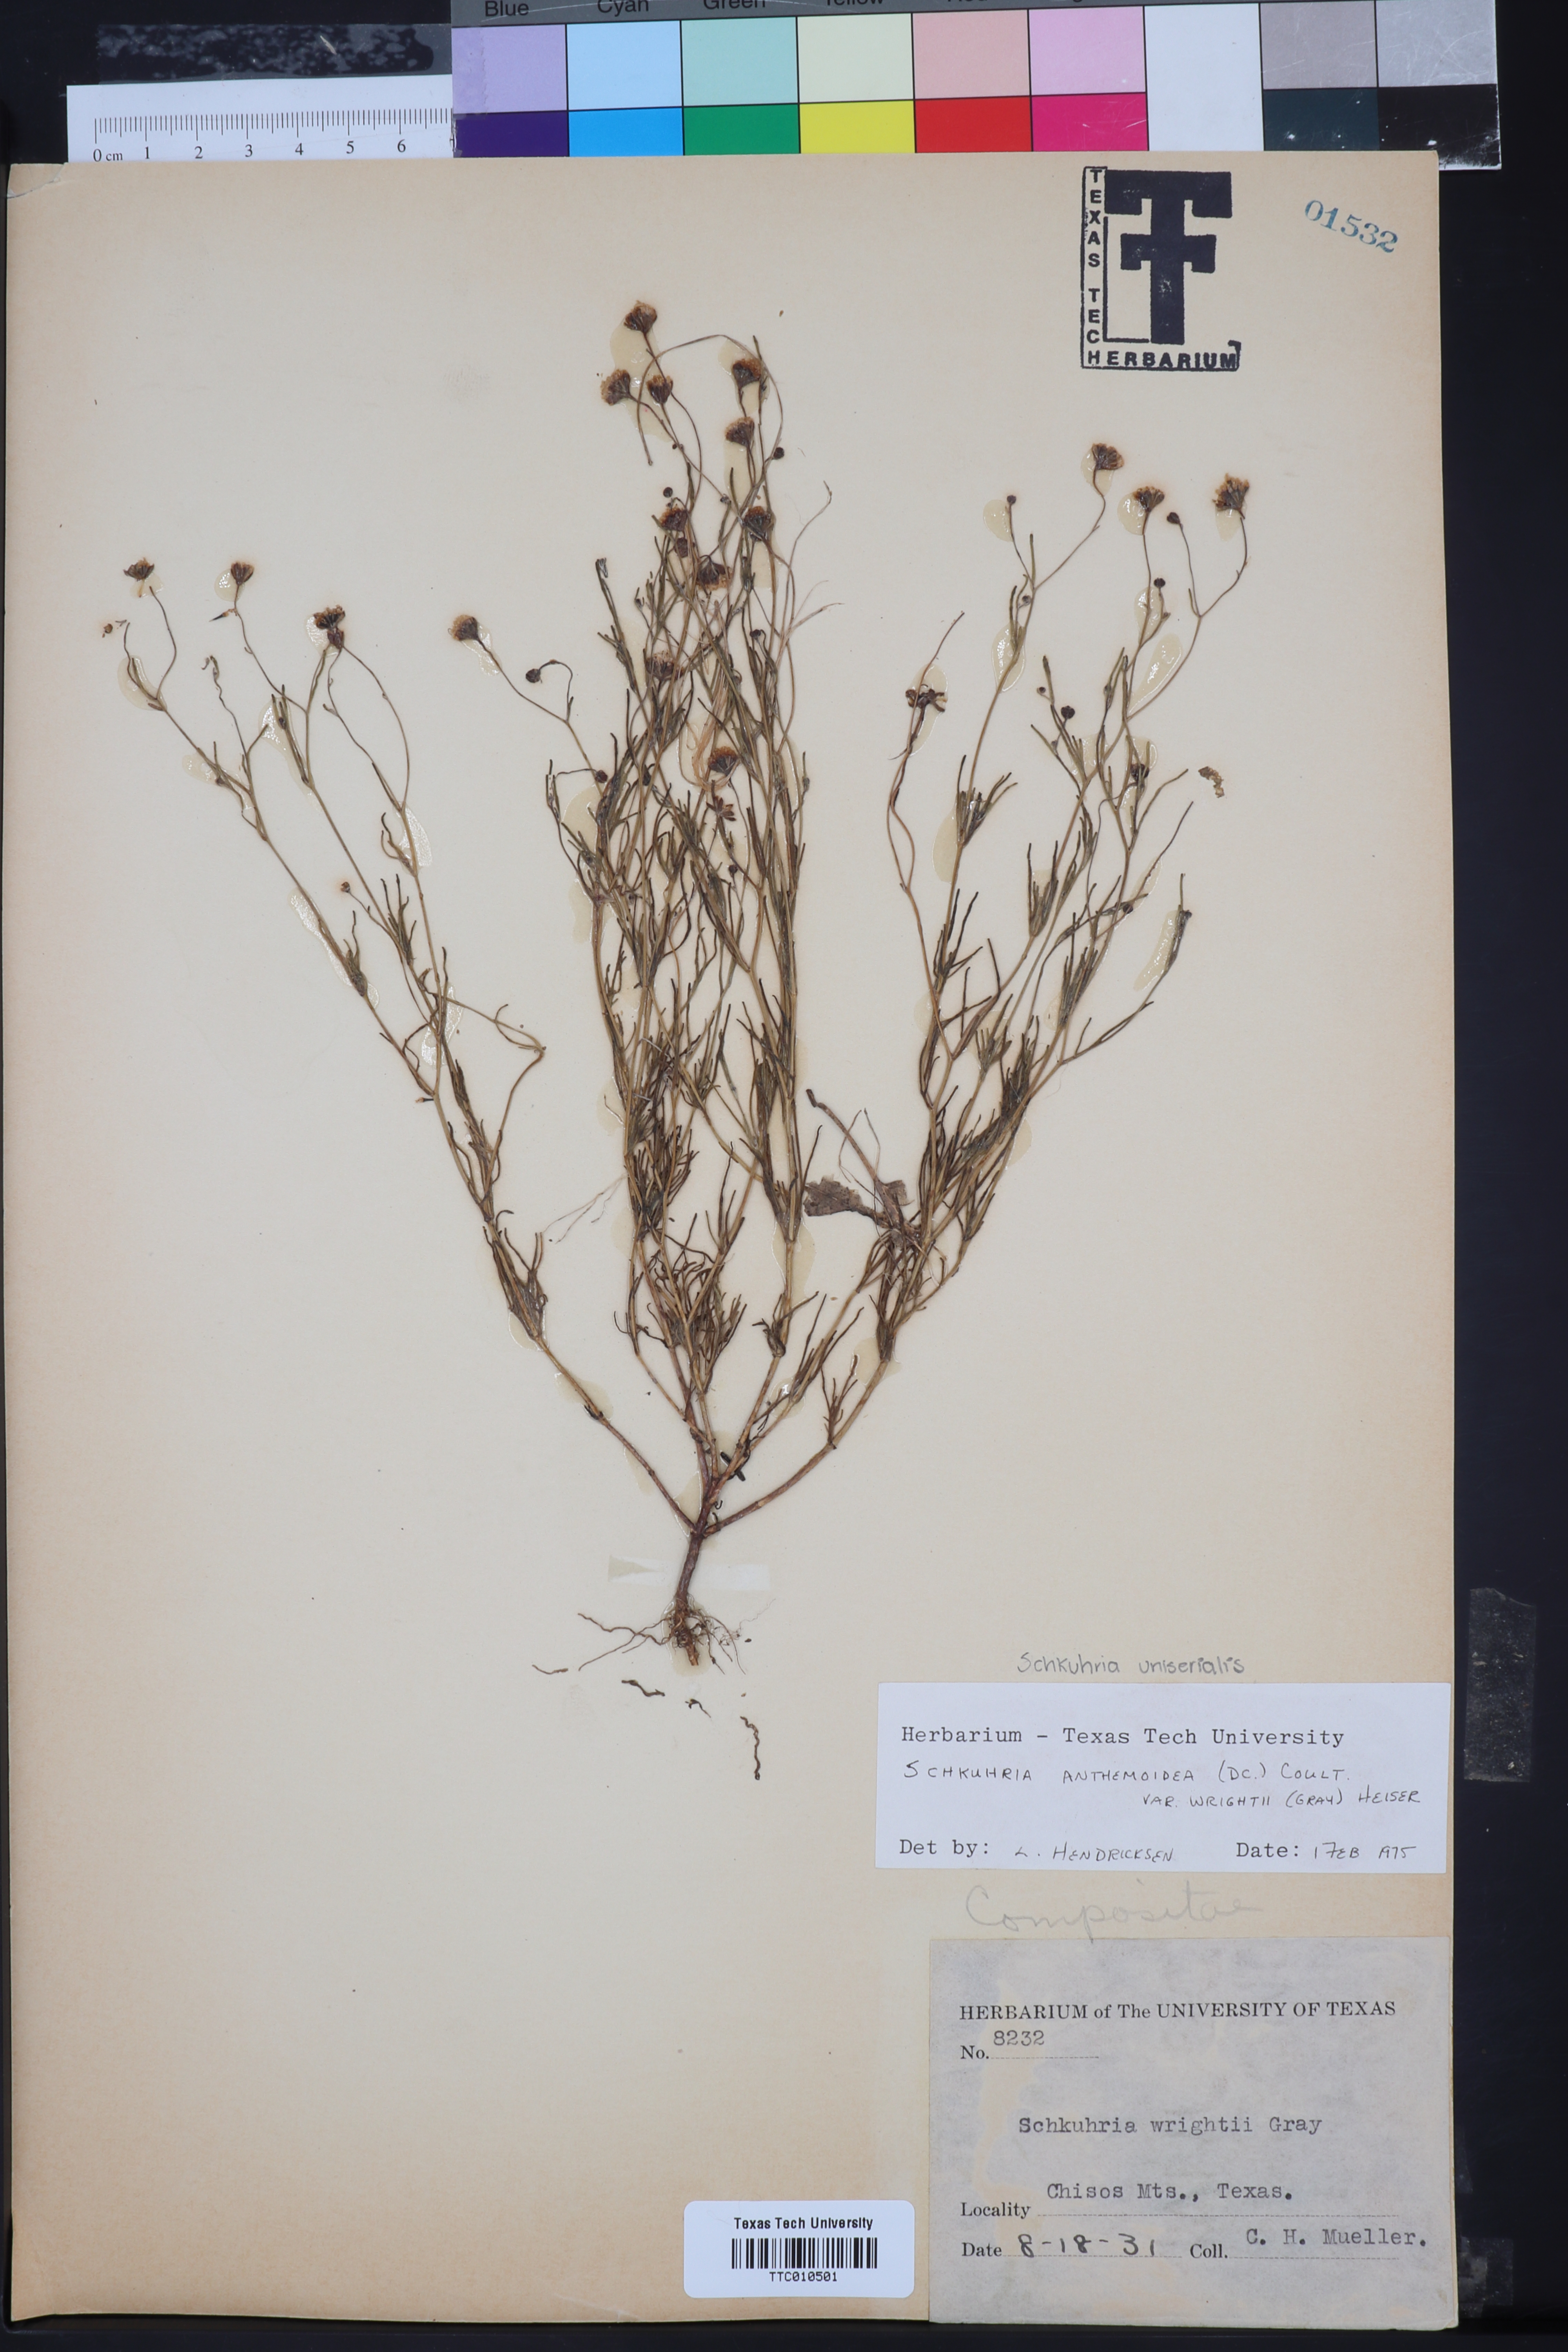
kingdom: Plantae
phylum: Tracheophyta
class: Magnoliopsida
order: Asterales
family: Asteraceae
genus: Schkuhria
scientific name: Schkuhria pinnata
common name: Dwarf marigold
